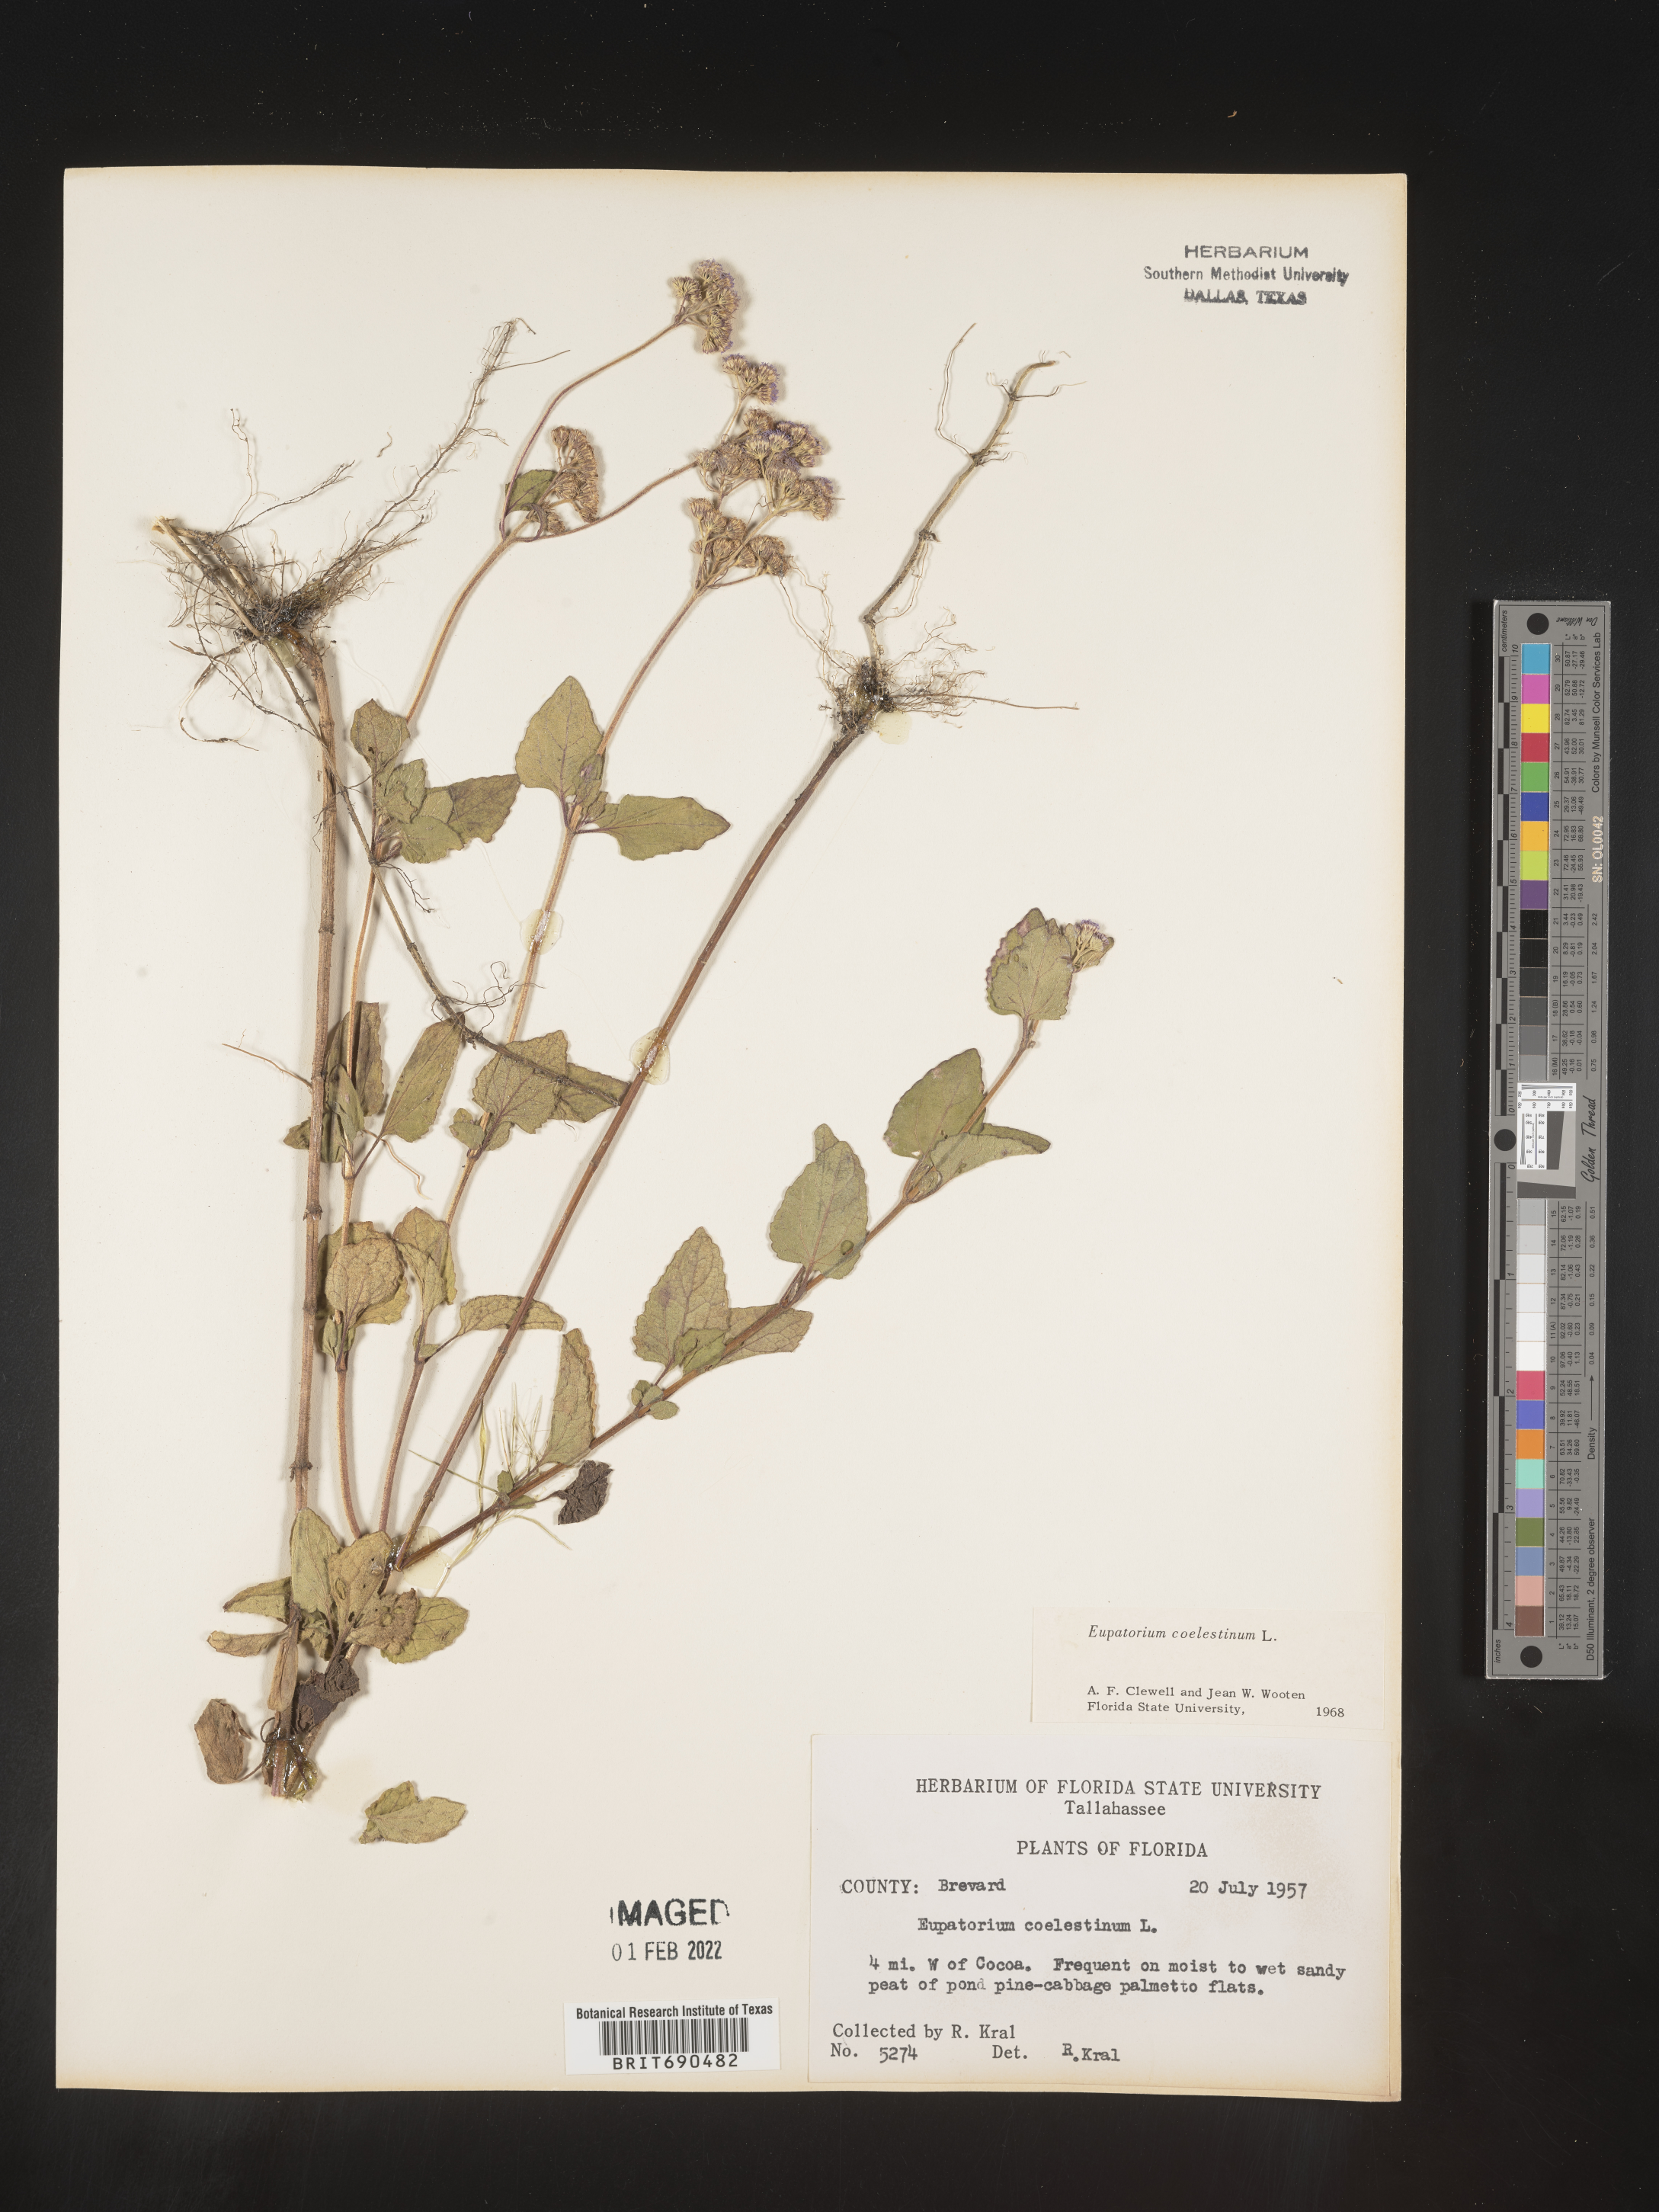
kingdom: Plantae
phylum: Tracheophyta
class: Magnoliopsida
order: Asterales
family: Asteraceae
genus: Conoclinium
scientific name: Conoclinium coelestinum
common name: Blue mistflower
